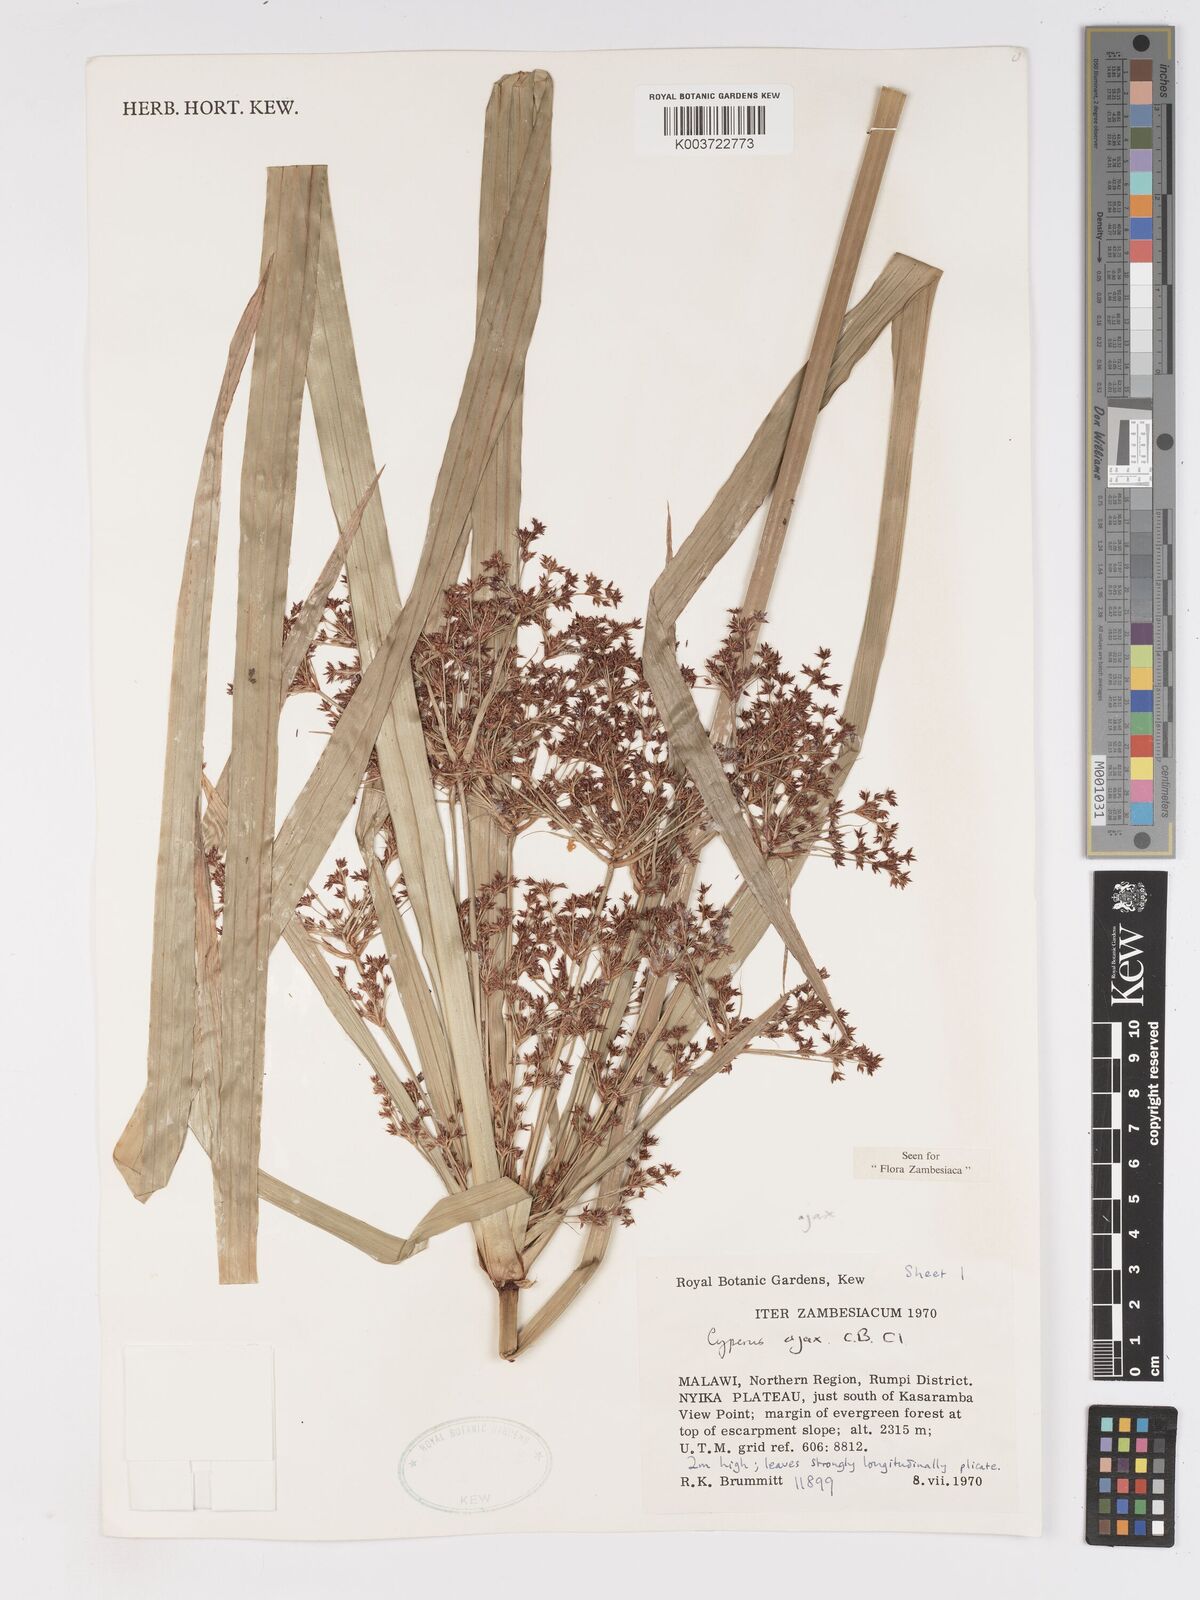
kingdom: Plantae
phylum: Tracheophyta
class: Liliopsida
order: Poales
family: Cyperaceae
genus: Cyperus
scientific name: Cyperus ajax
